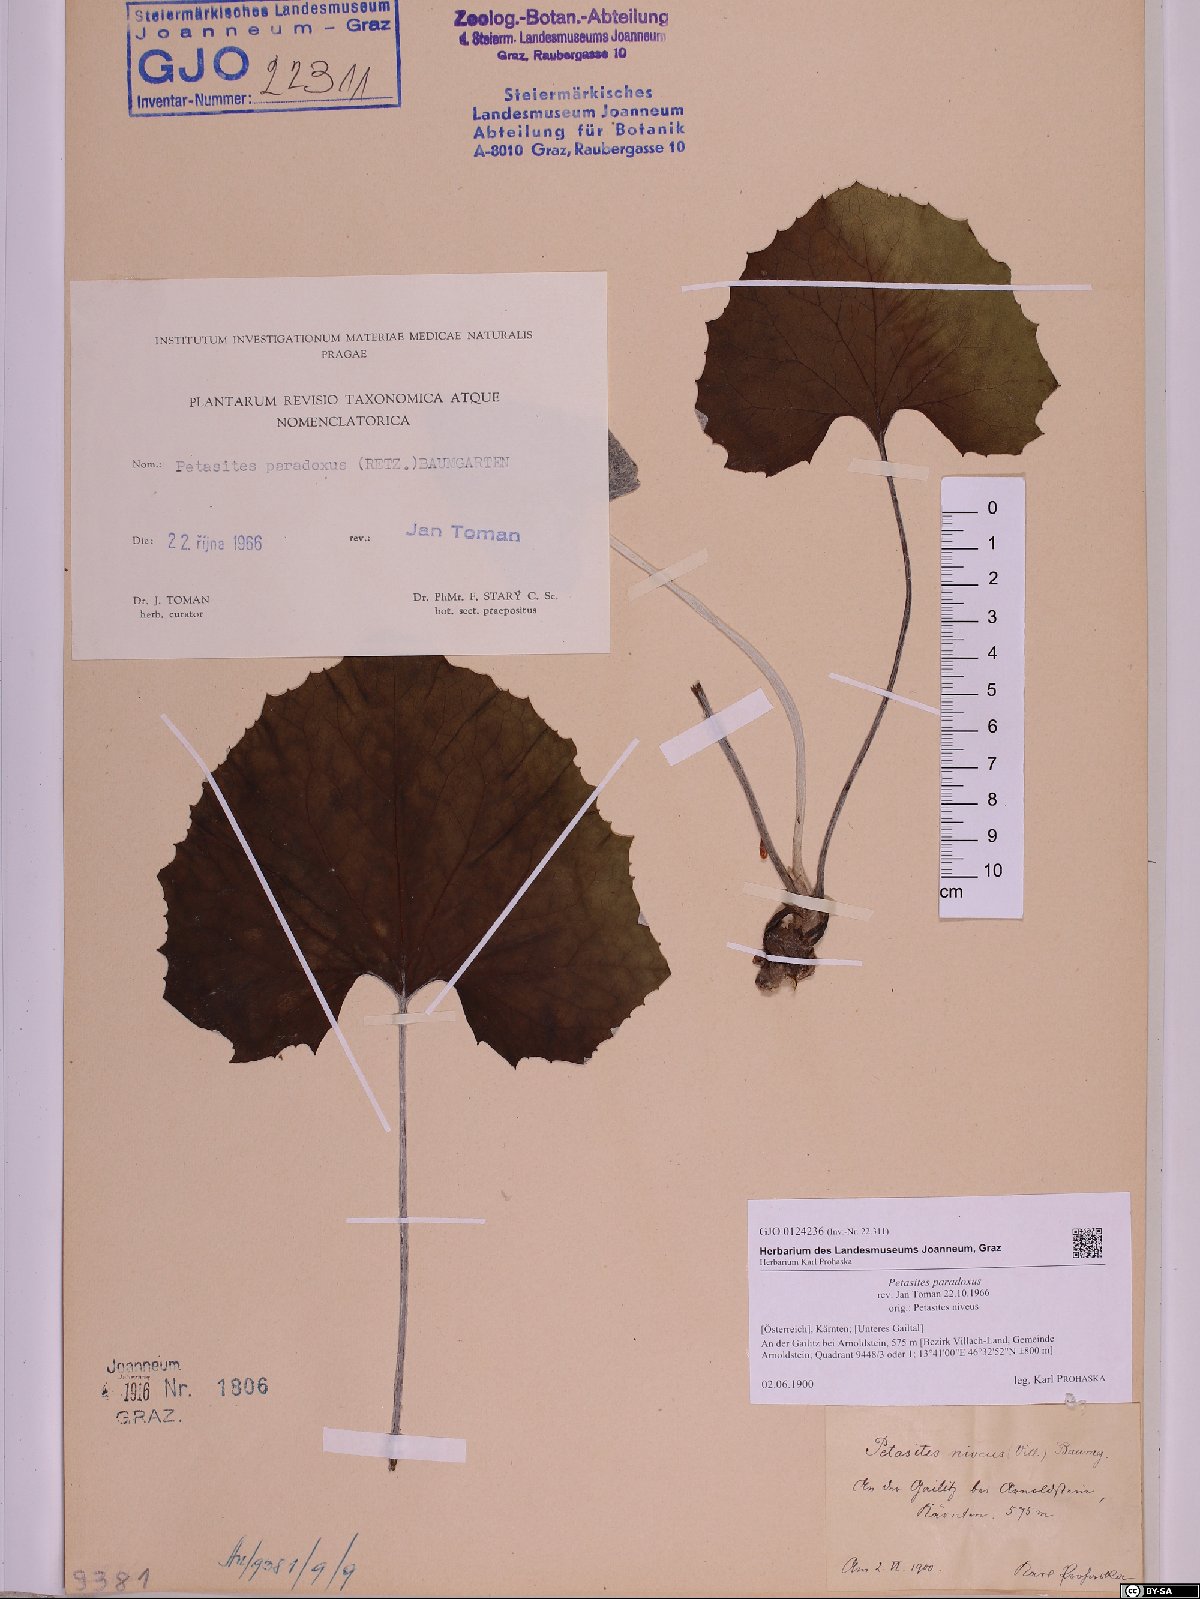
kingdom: Plantae
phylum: Tracheophyta
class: Magnoliopsida
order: Asterales
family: Asteraceae
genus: Petasites
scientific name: Petasites paradoxus
